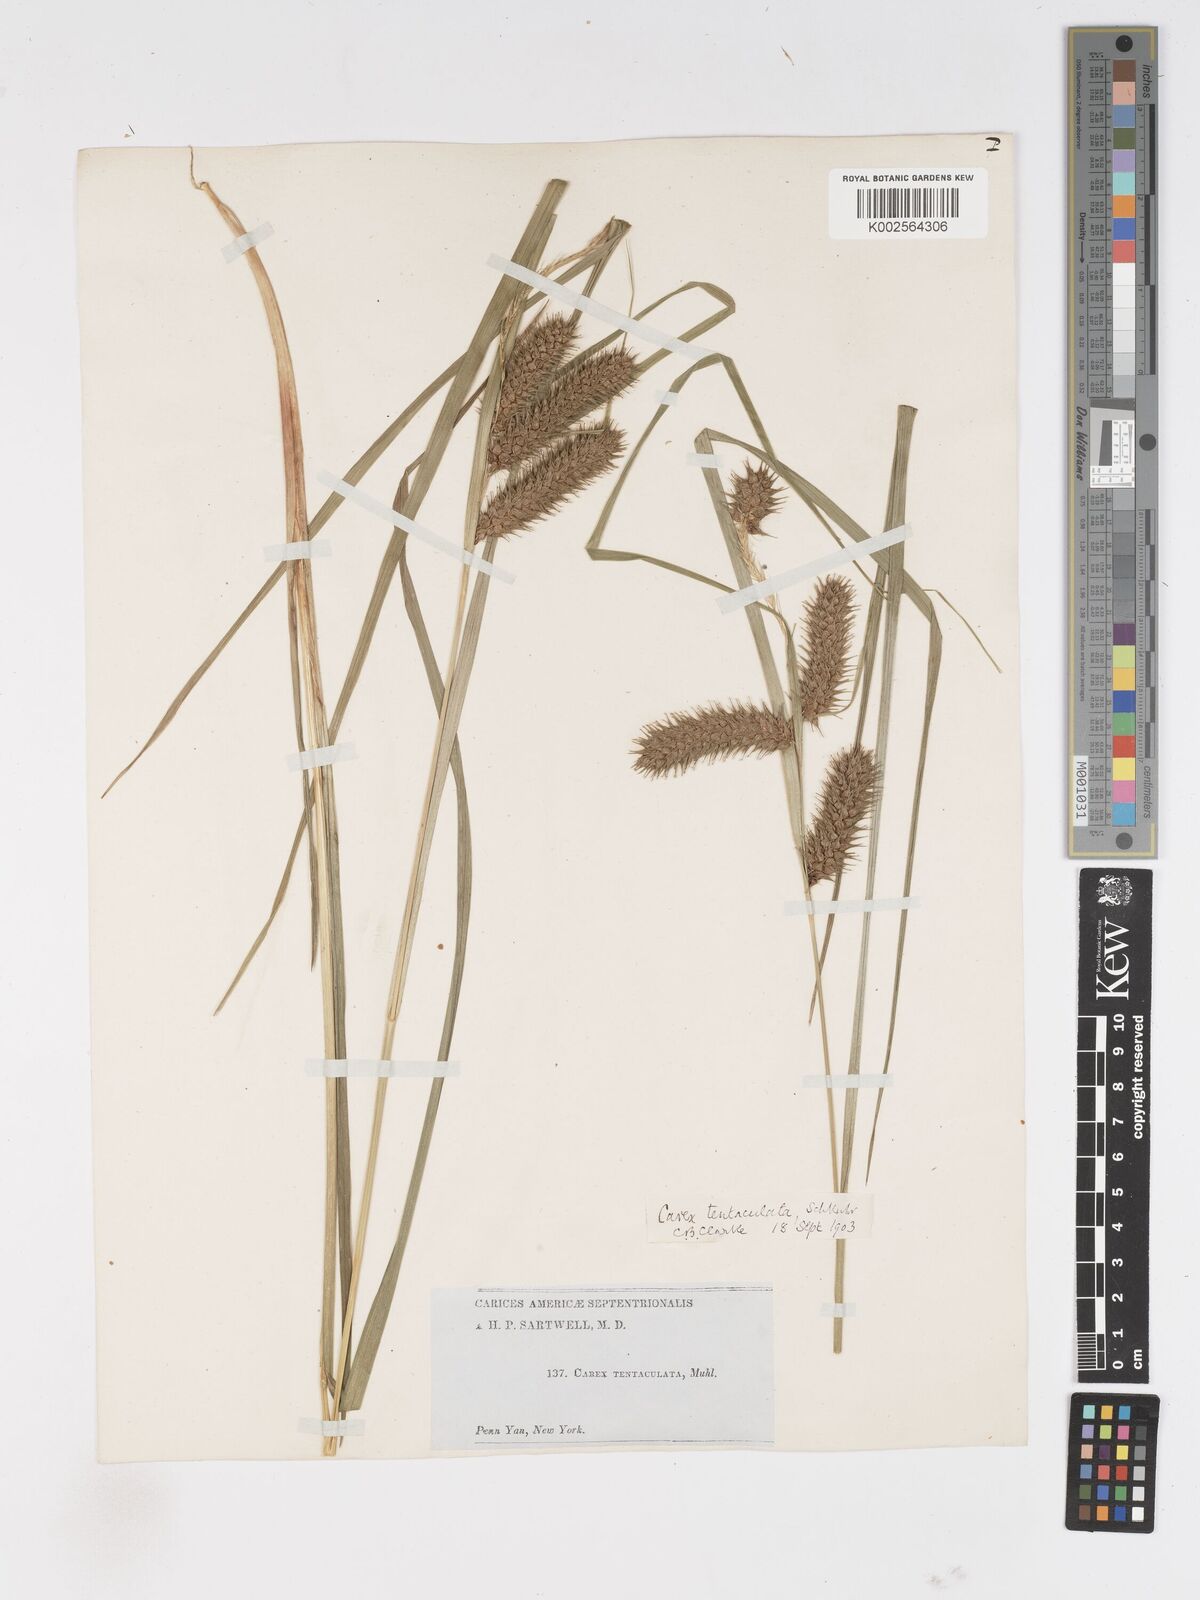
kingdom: Plantae
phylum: Tracheophyta
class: Liliopsida
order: Poales
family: Cyperaceae
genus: Carex
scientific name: Carex lurida
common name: Sallow sedge
